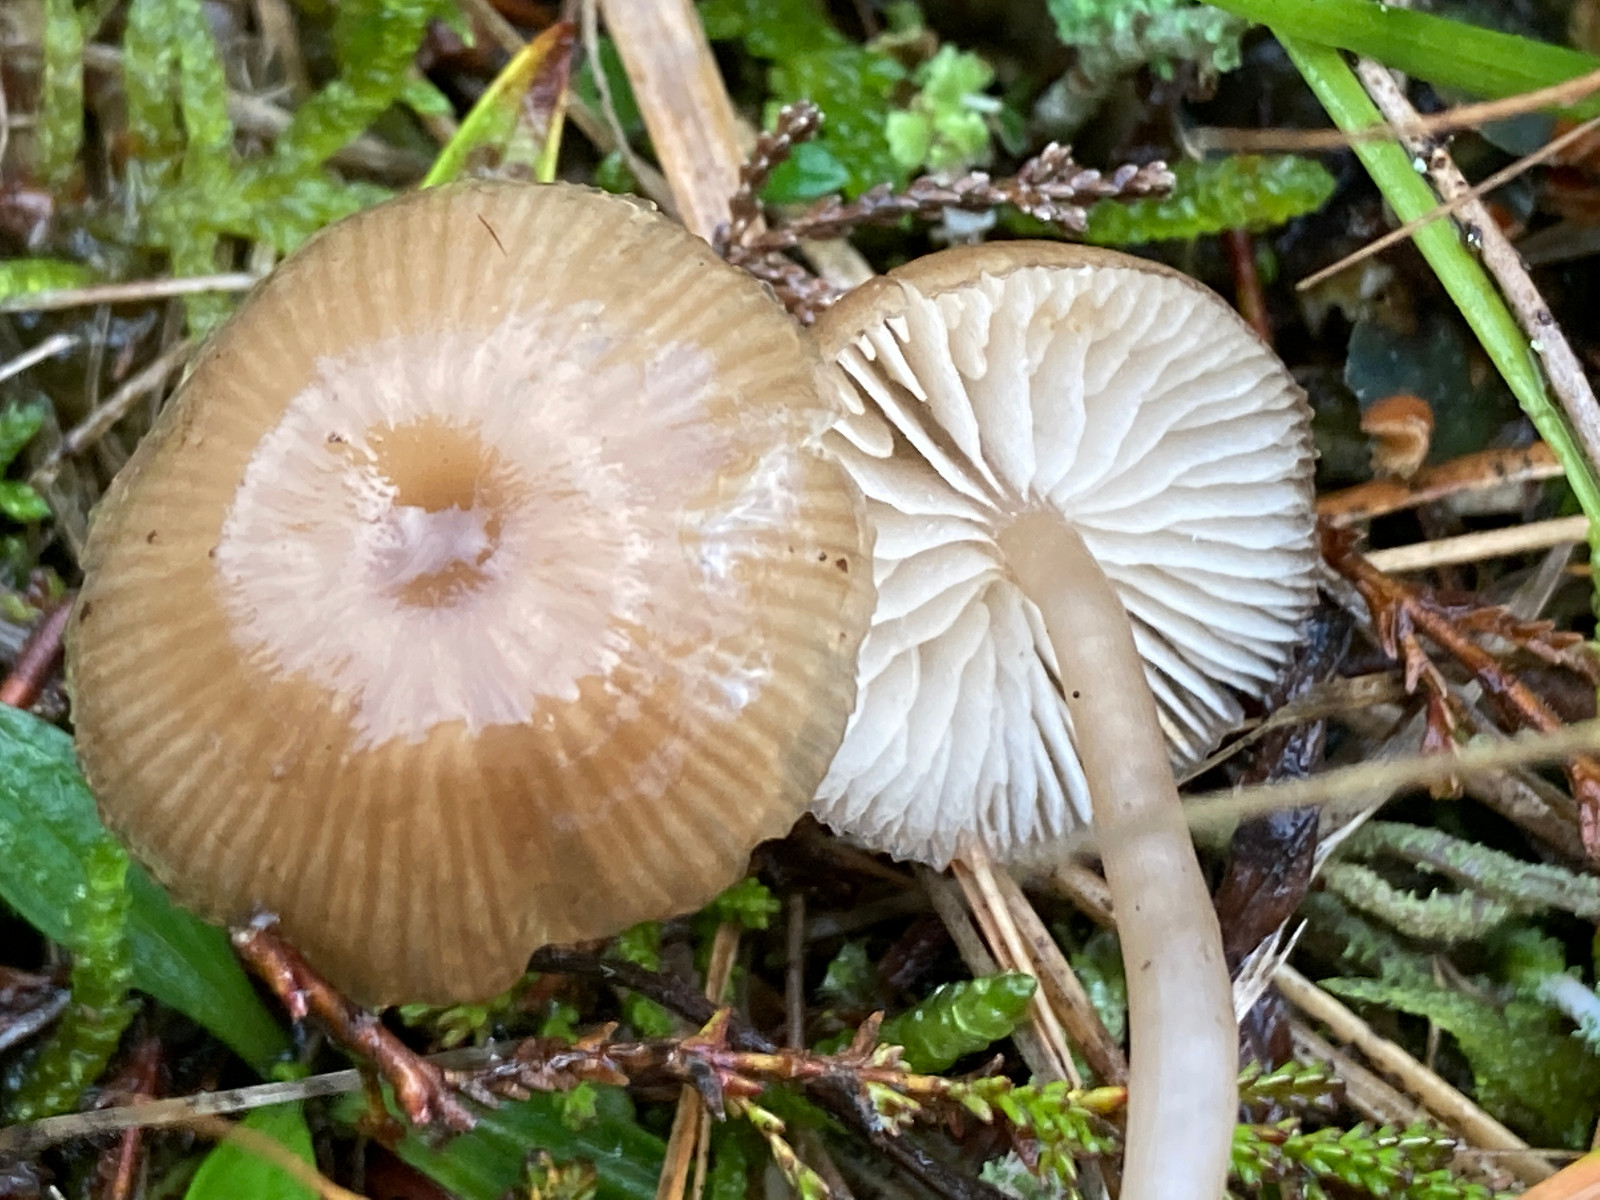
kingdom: Fungi
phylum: Basidiomycota
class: Agaricomycetes
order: Agaricales
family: Tricholomataceae
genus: Gamundia
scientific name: Gamundia xerophila
